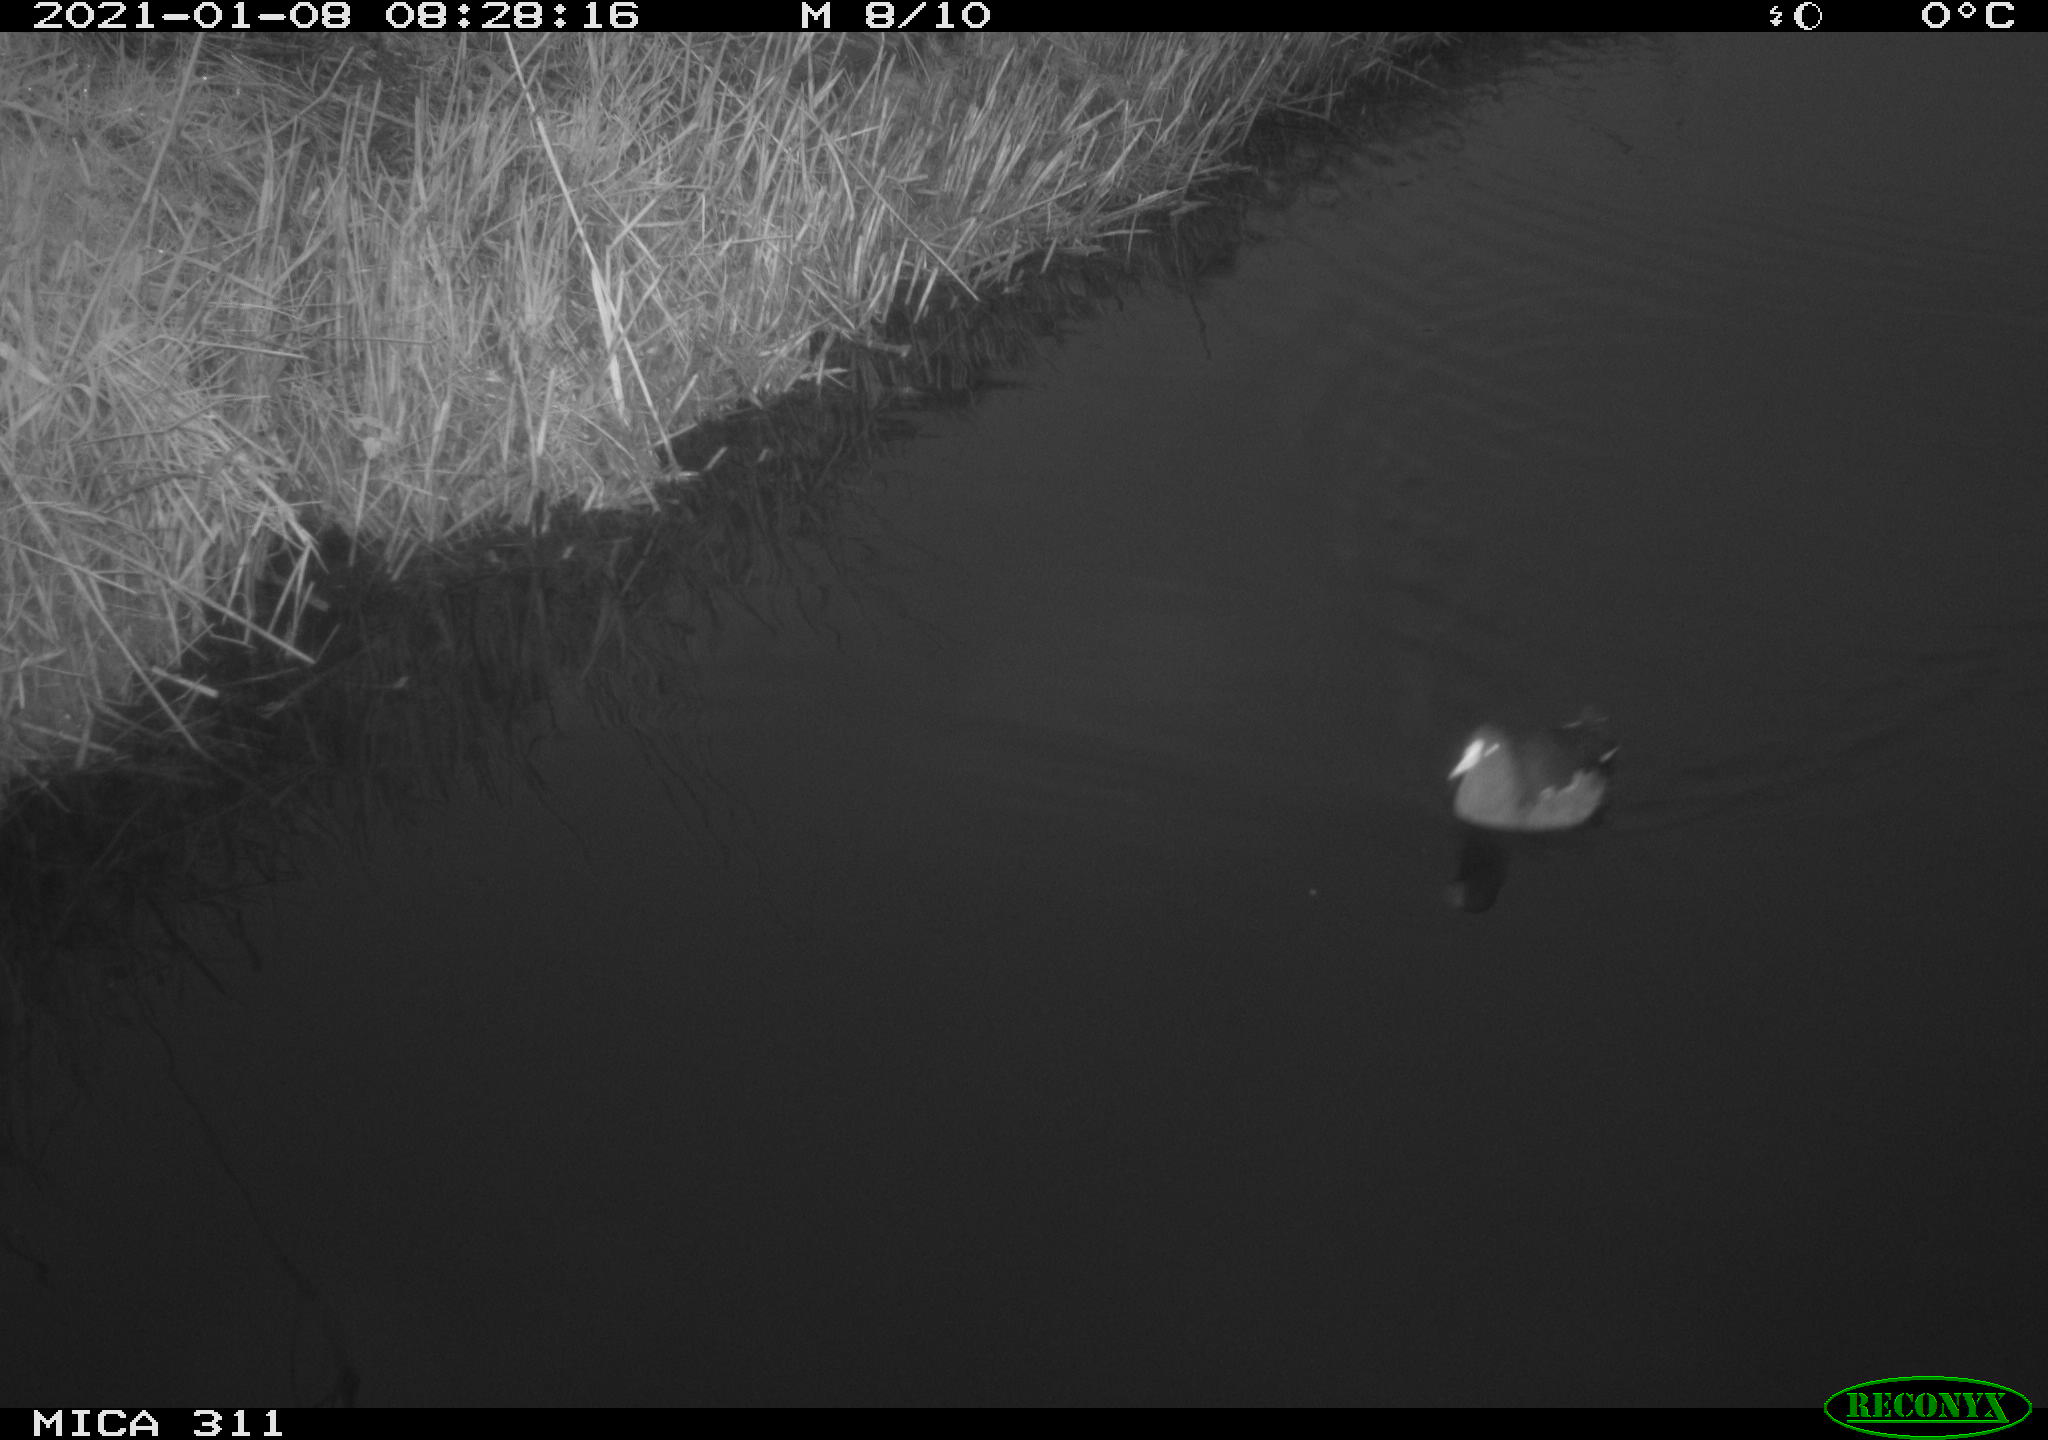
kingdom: Animalia
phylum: Chordata
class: Aves
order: Gruiformes
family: Rallidae
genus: Gallinula
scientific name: Gallinula chloropus
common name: Common moorhen
